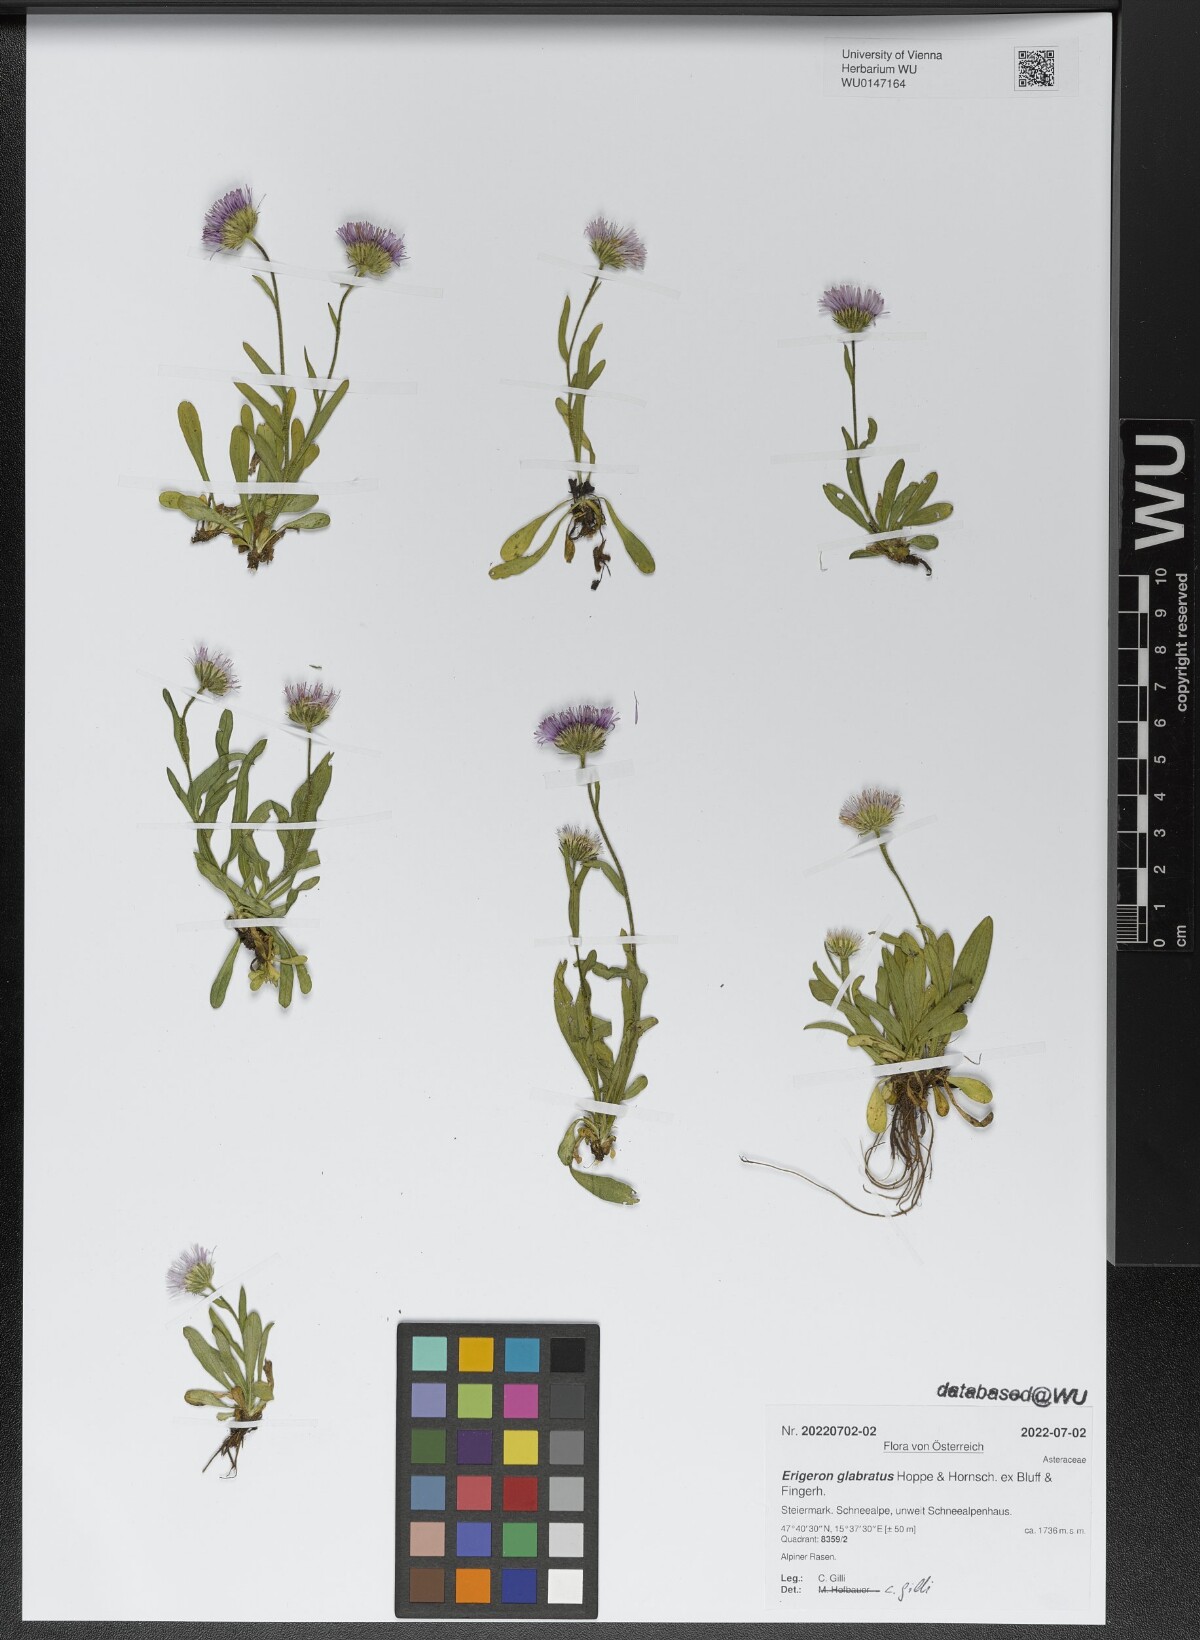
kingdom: Plantae
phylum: Tracheophyta
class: Magnoliopsida
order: Asterales
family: Asteraceae
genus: Erigeron
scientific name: Erigeron glabratus
